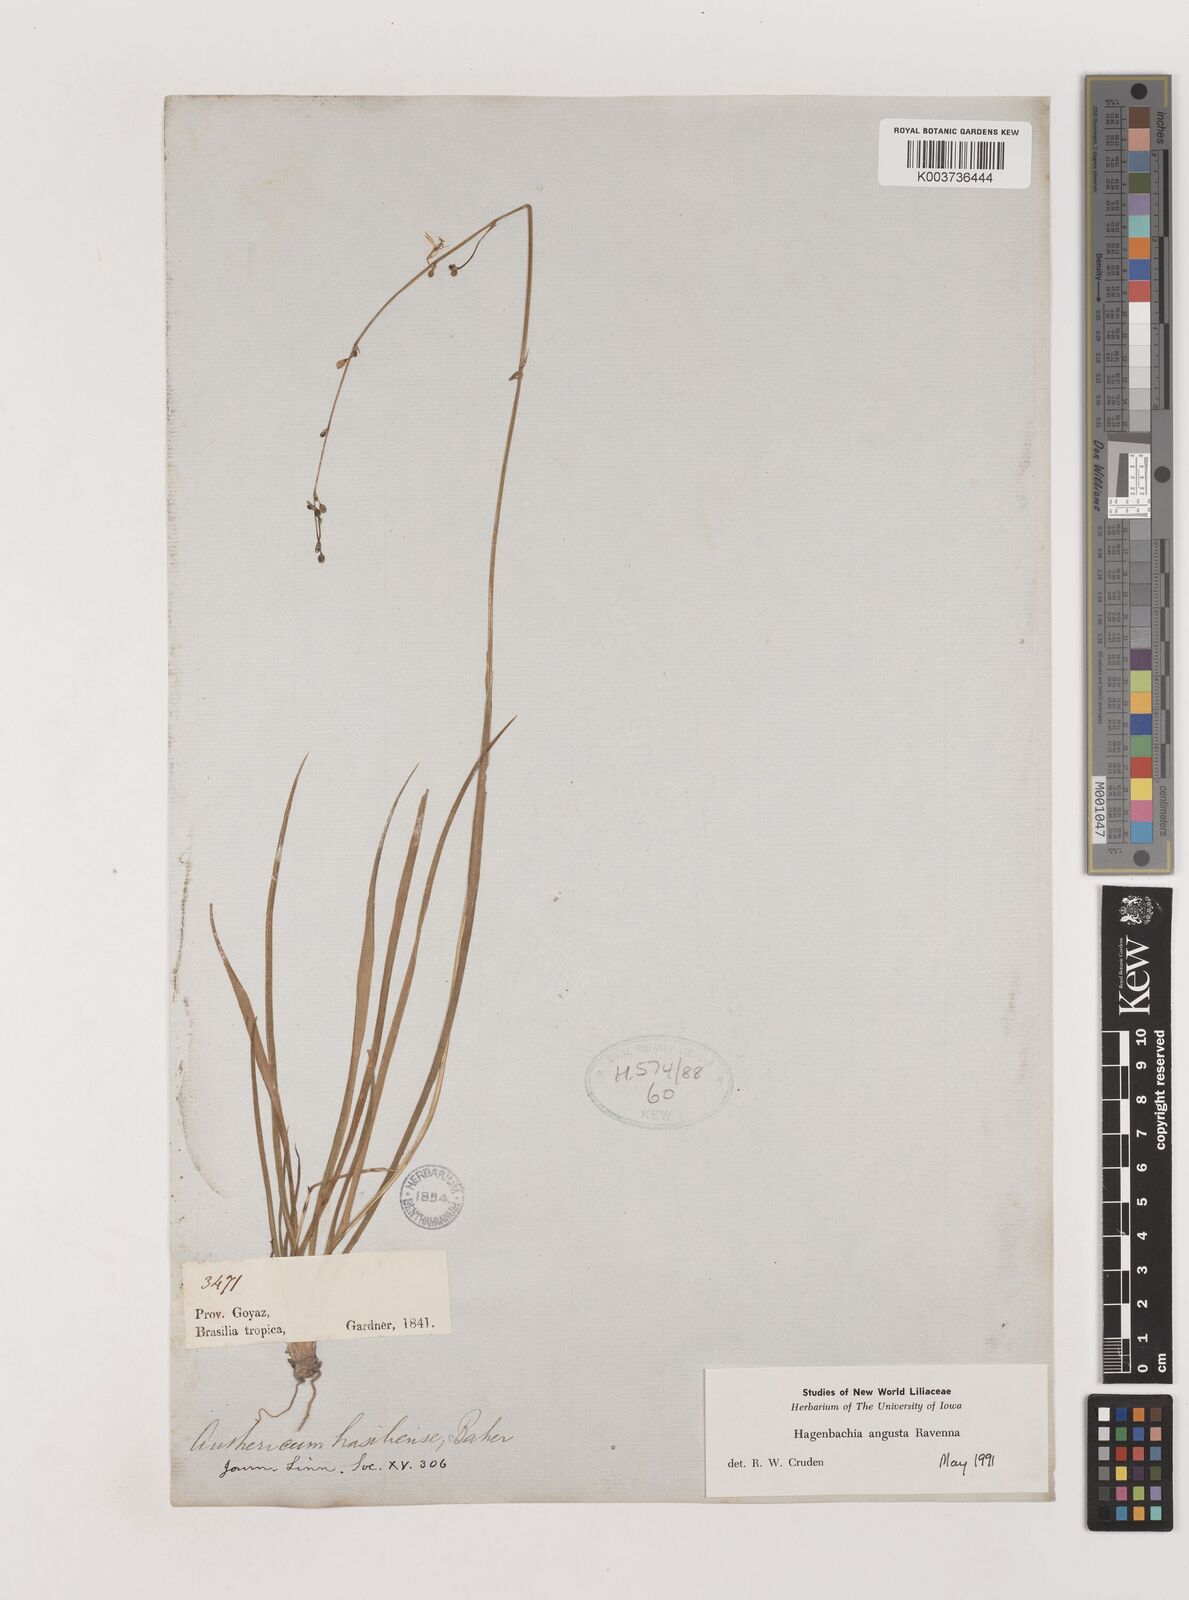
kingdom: Plantae
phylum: Tracheophyta
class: Liliopsida
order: Asparagales
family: Asparagaceae
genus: Hagenbachia
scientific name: Hagenbachia matogrossensis
